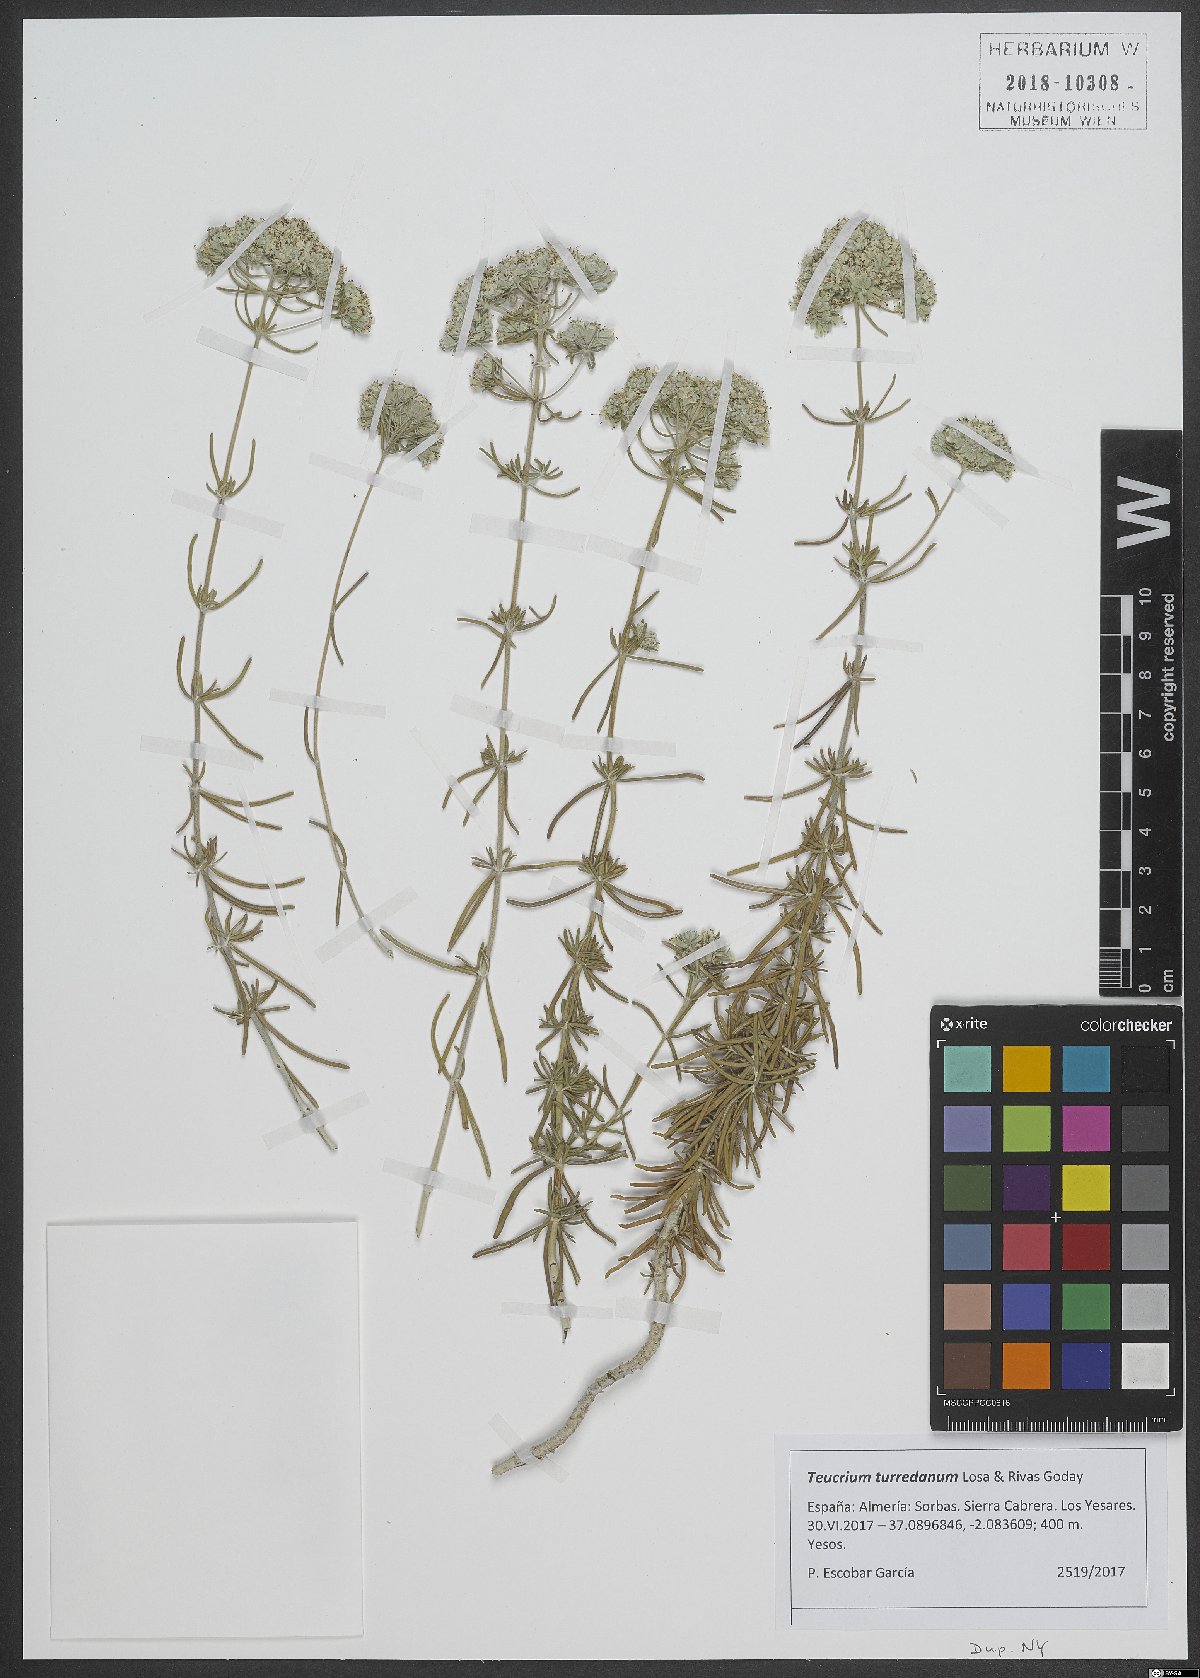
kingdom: Plantae
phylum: Tracheophyta
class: Magnoliopsida
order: Lamiales
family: Lamiaceae
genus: Teucrium
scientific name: Teucrium turredanum
